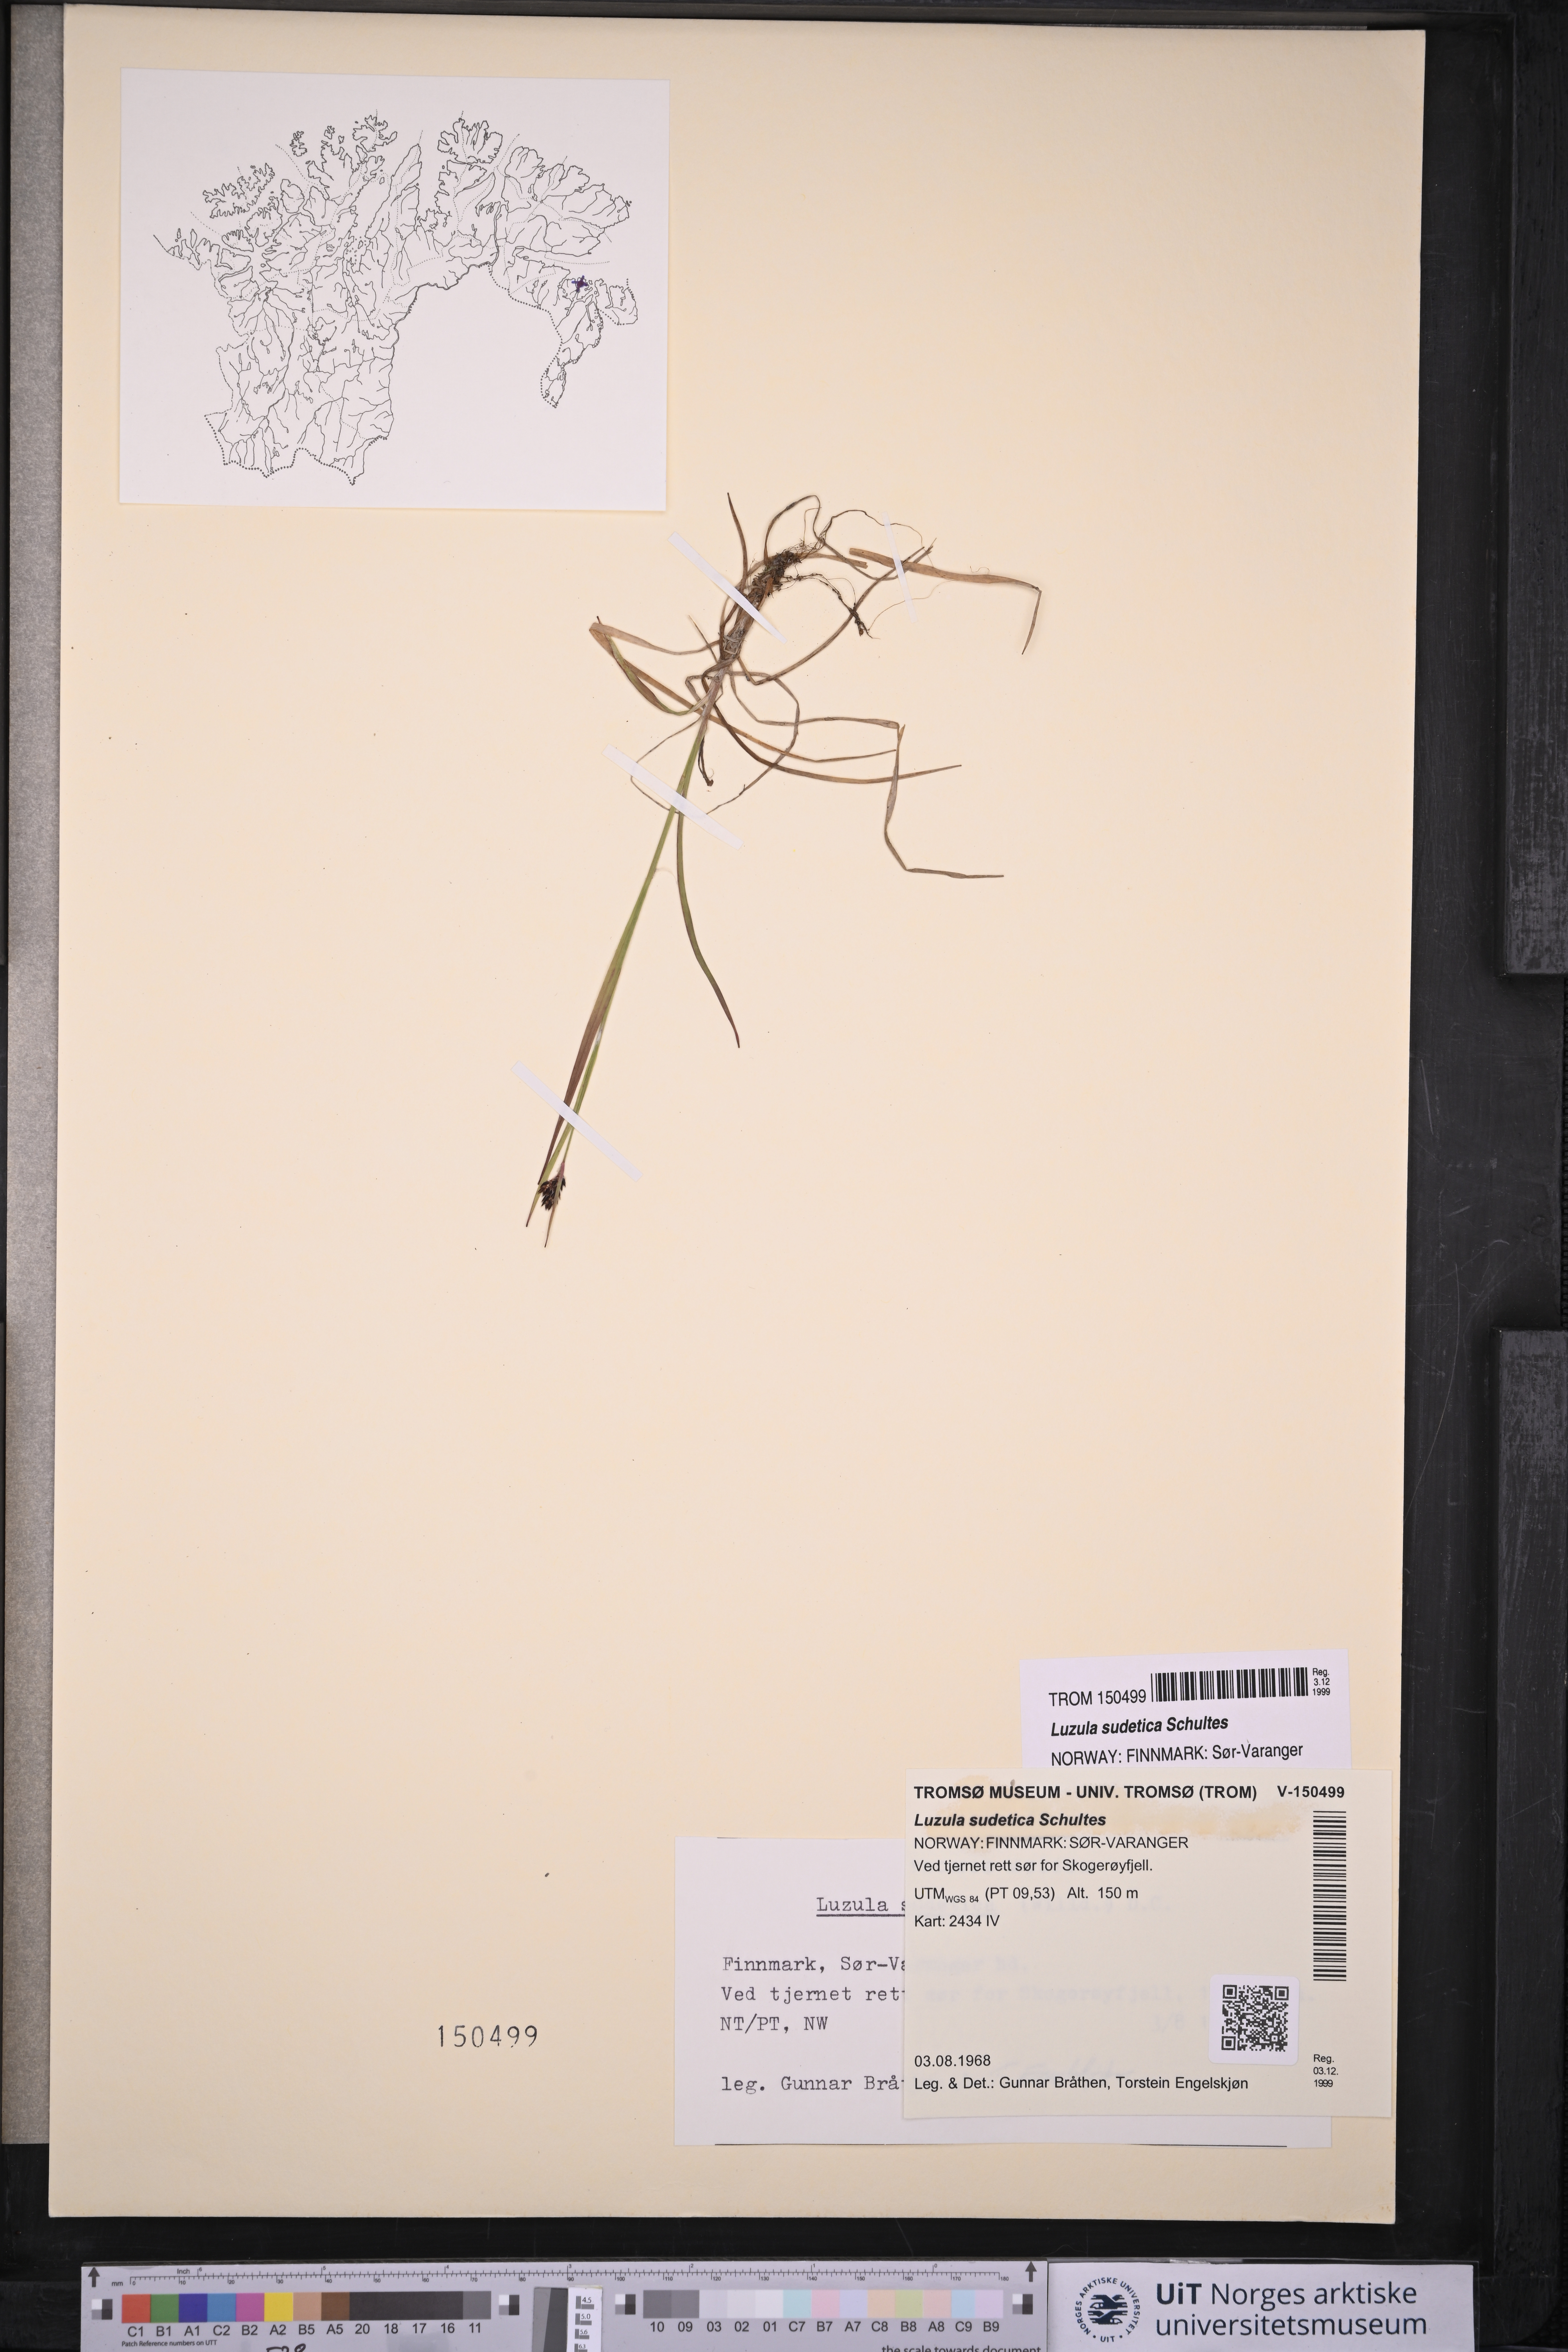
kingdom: Plantae
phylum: Tracheophyta
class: Liliopsida
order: Poales
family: Juncaceae
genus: Luzula
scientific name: Luzula sudetica
